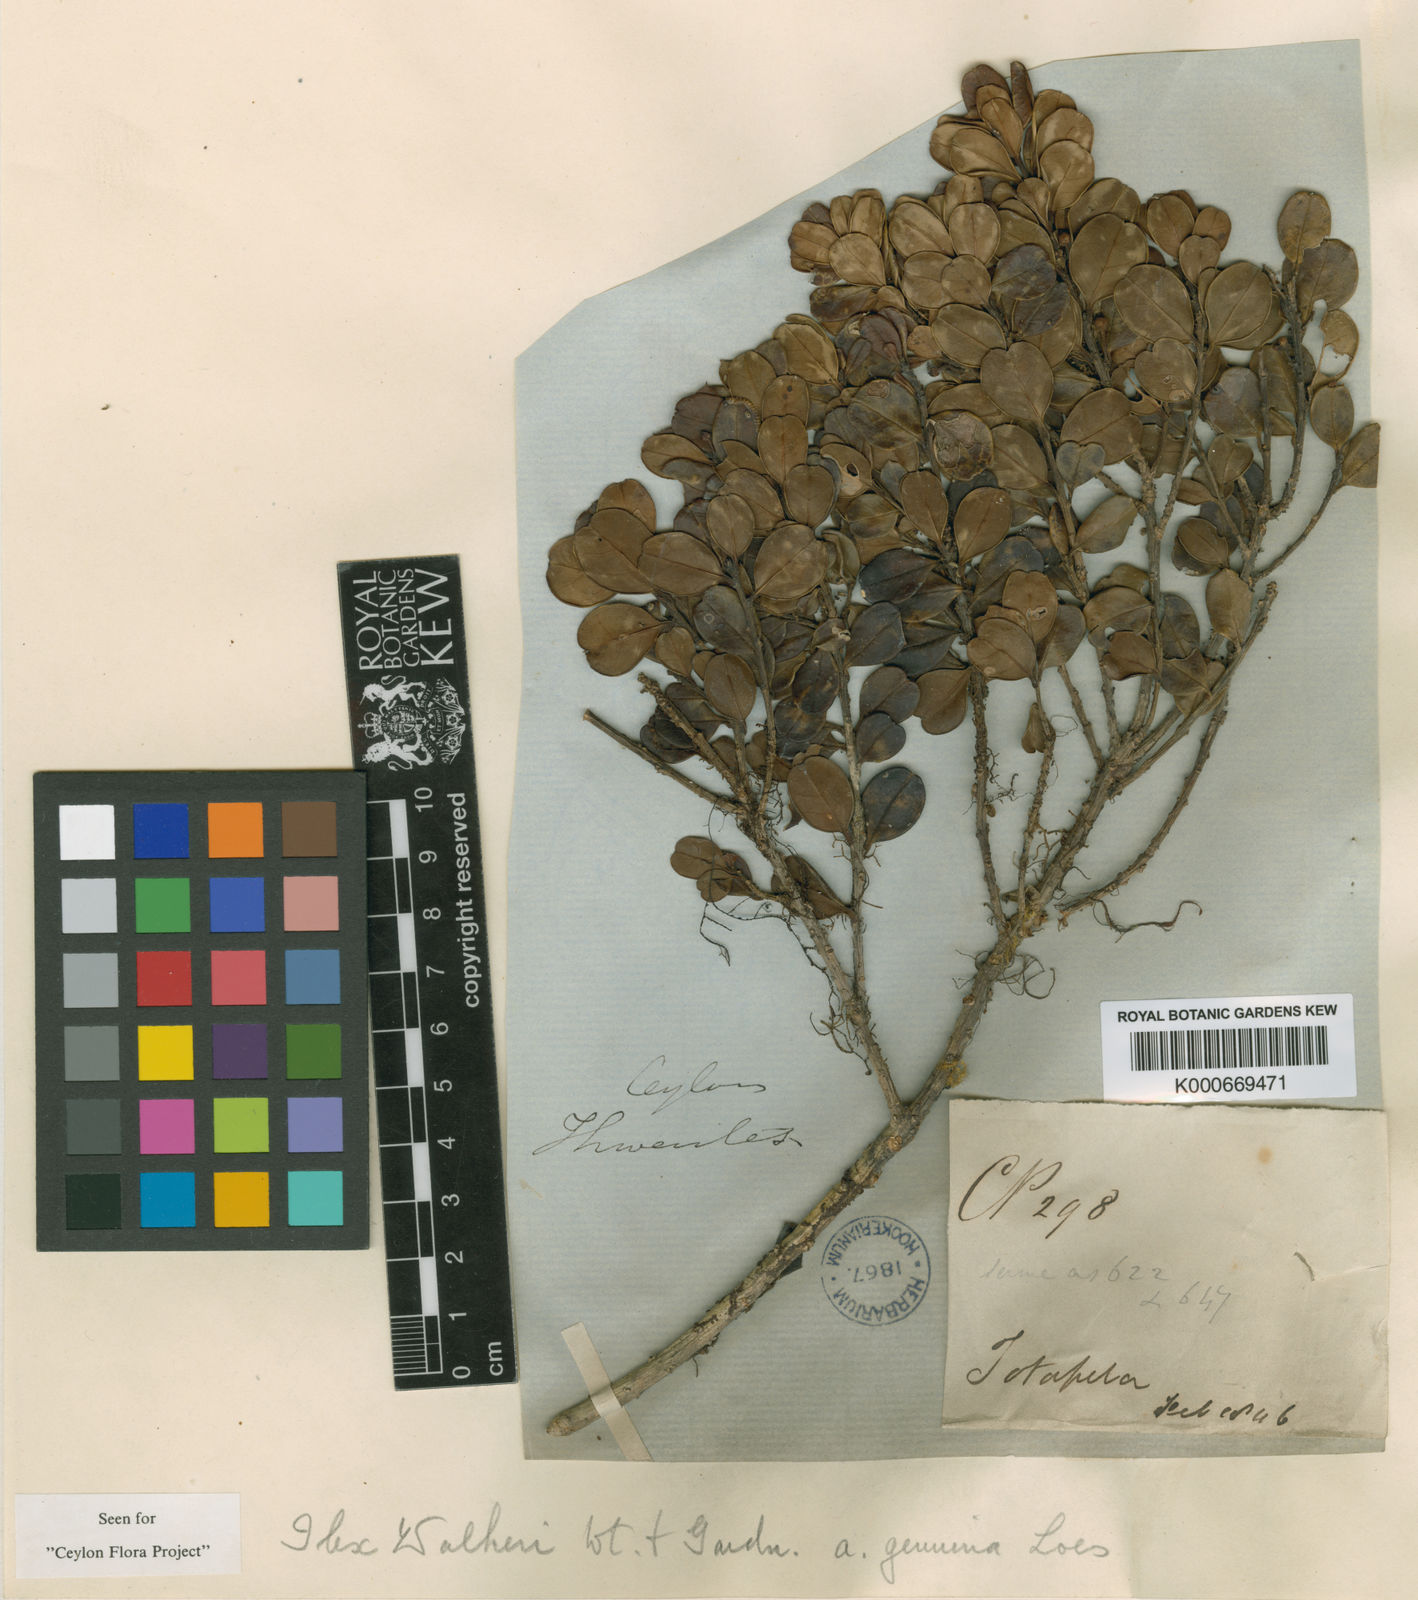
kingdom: Plantae
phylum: Tracheophyta
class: Magnoliopsida
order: Aquifoliales
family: Aquifoliaceae
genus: Ilex
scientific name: Ilex walkeri
